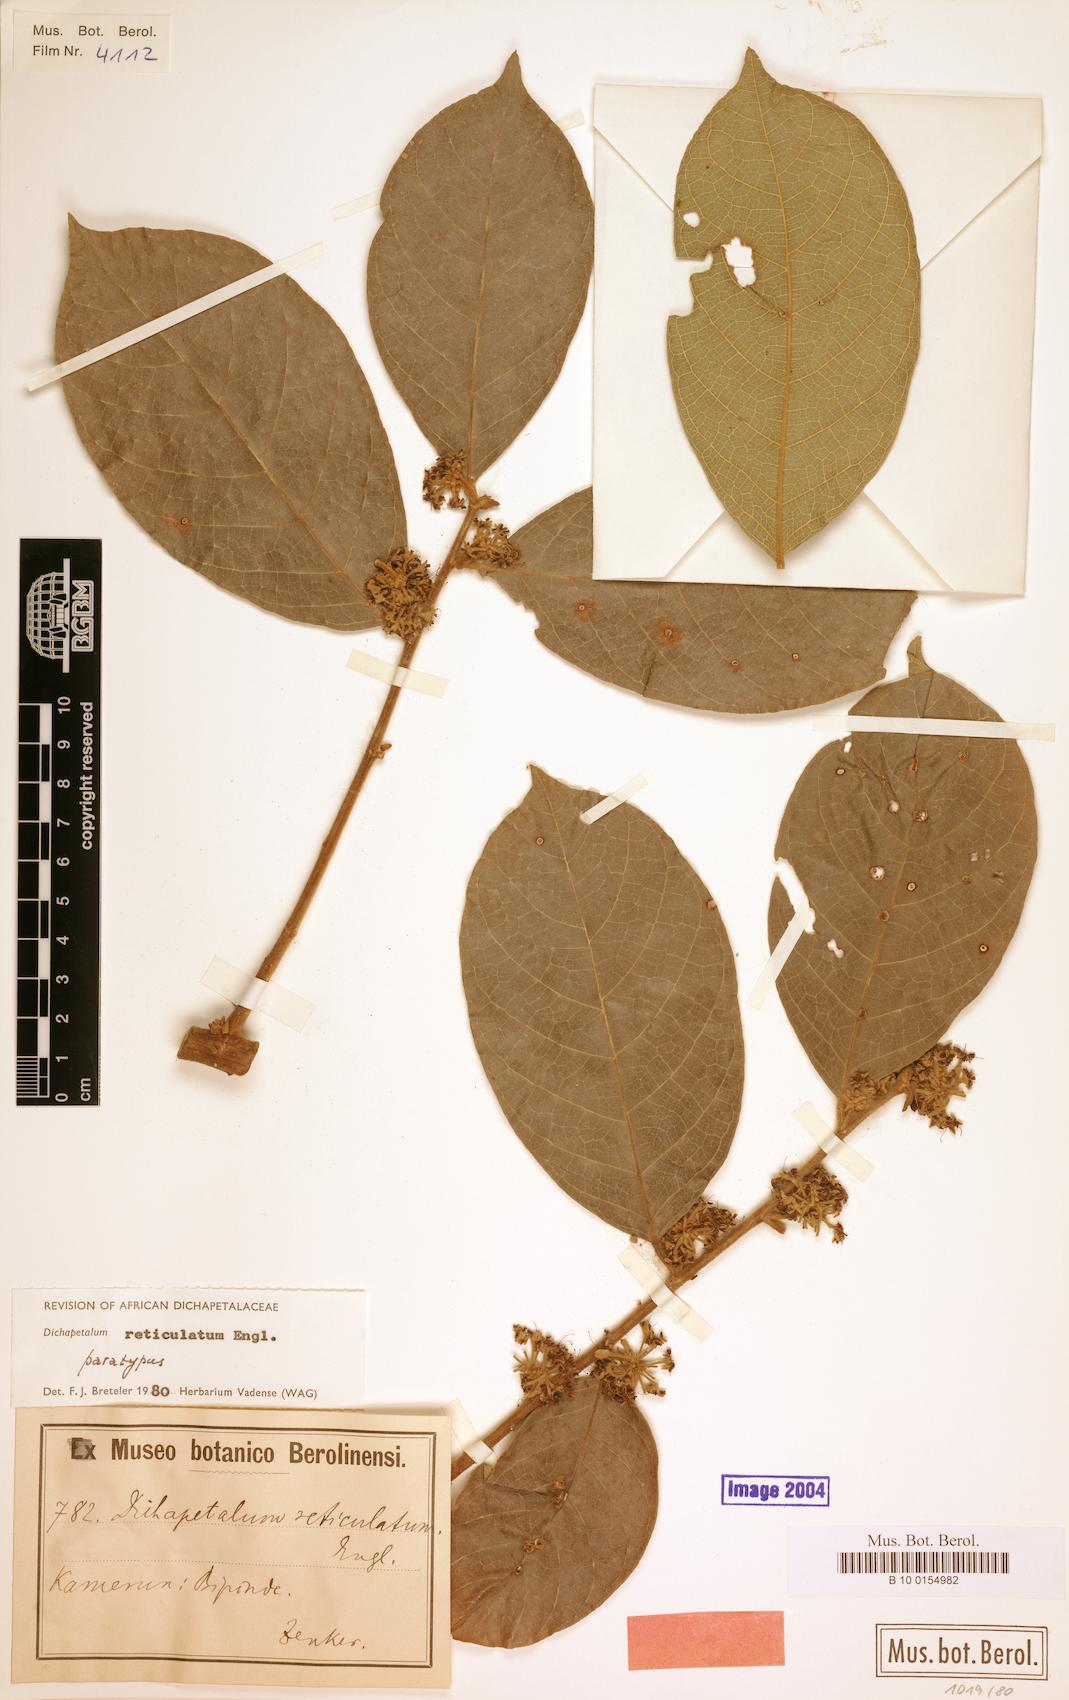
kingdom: Plantae
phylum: Tracheophyta
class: Magnoliopsida
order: Malpighiales
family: Dichapetalaceae
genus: Dichapetalum
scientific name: Dichapetalum reticulatum
